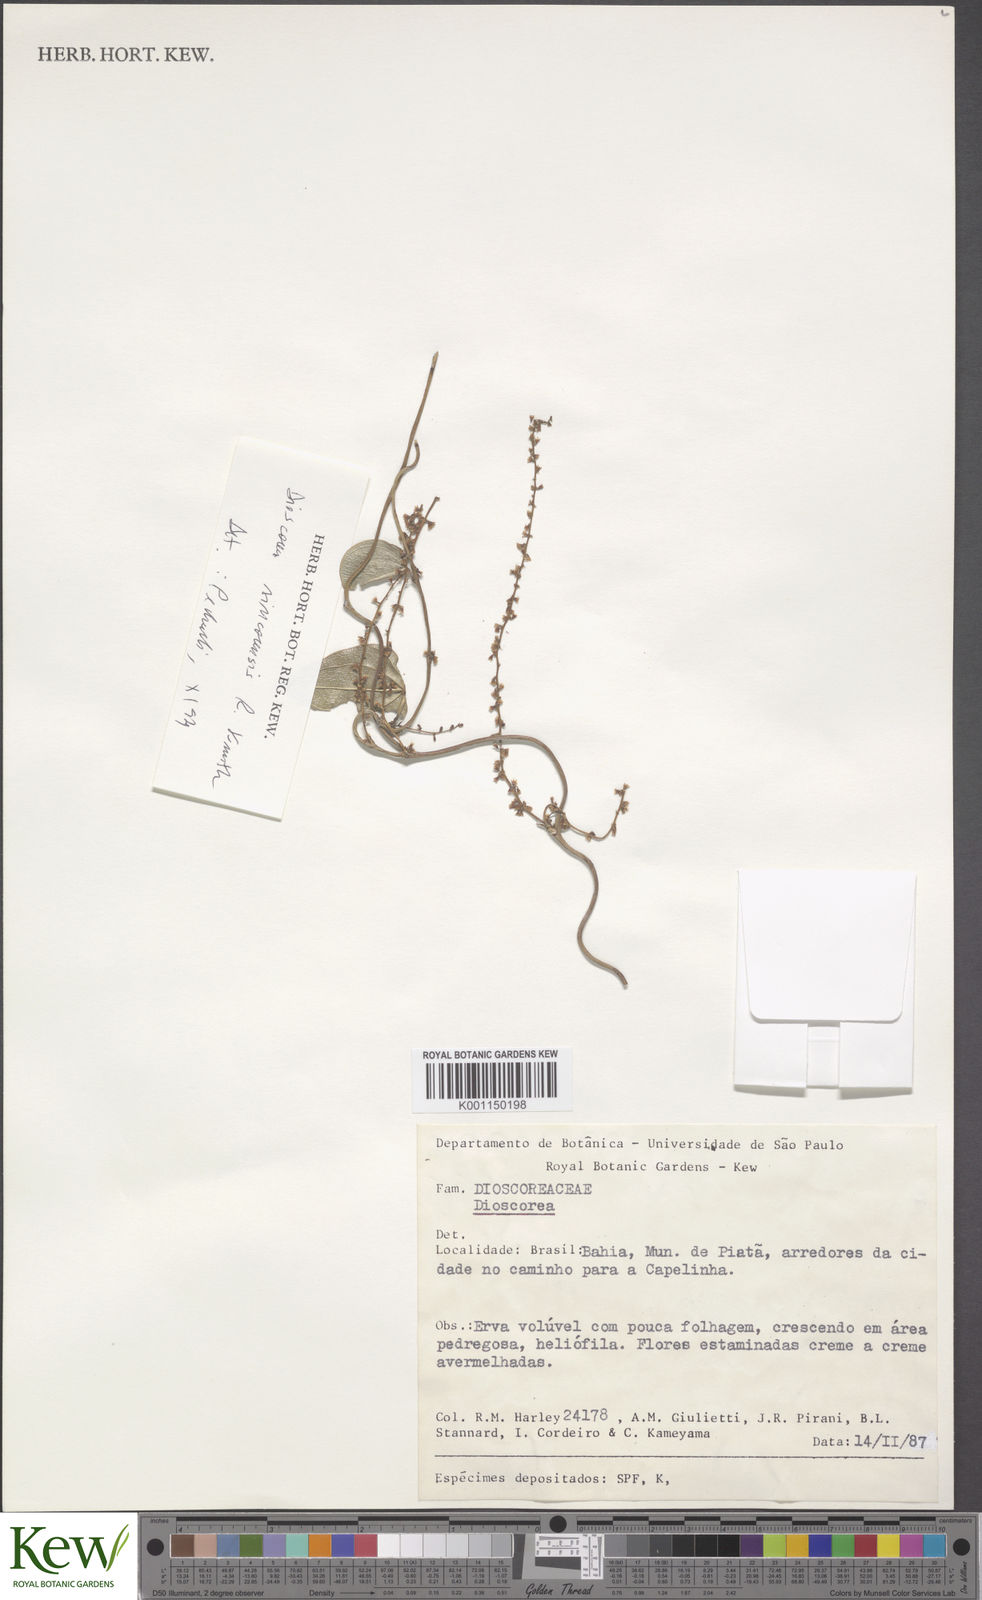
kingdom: Plantae
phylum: Tracheophyta
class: Liliopsida
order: Dioscoreales
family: Dioscoreaceae
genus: Dioscorea
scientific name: Dioscorea
